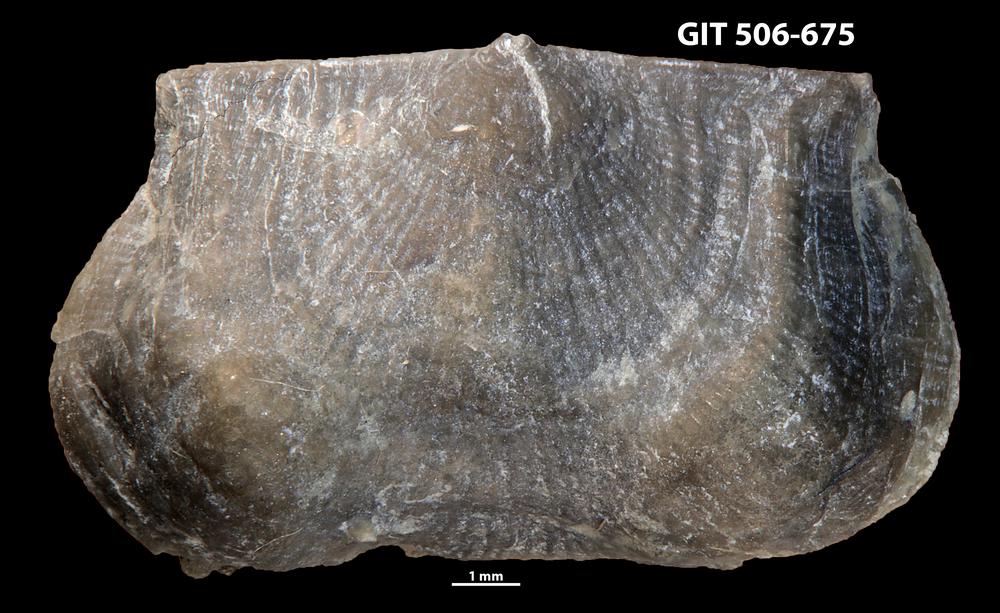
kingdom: Animalia
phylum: Brachiopoda
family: Strophomenidae
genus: Leptaena
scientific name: Leptaena altera
